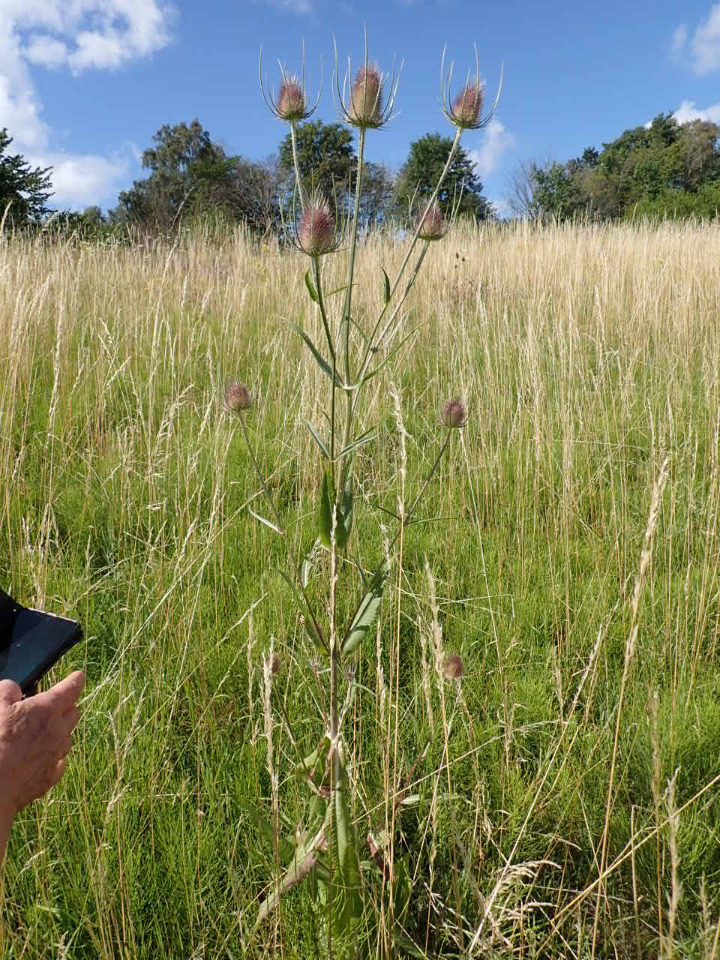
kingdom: Plantae
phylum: Tracheophyta
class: Magnoliopsida
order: Dipsacales
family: Caprifoliaceae
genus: Dipsacus
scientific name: Dipsacus fullonum
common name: Gærde-kartebolle
